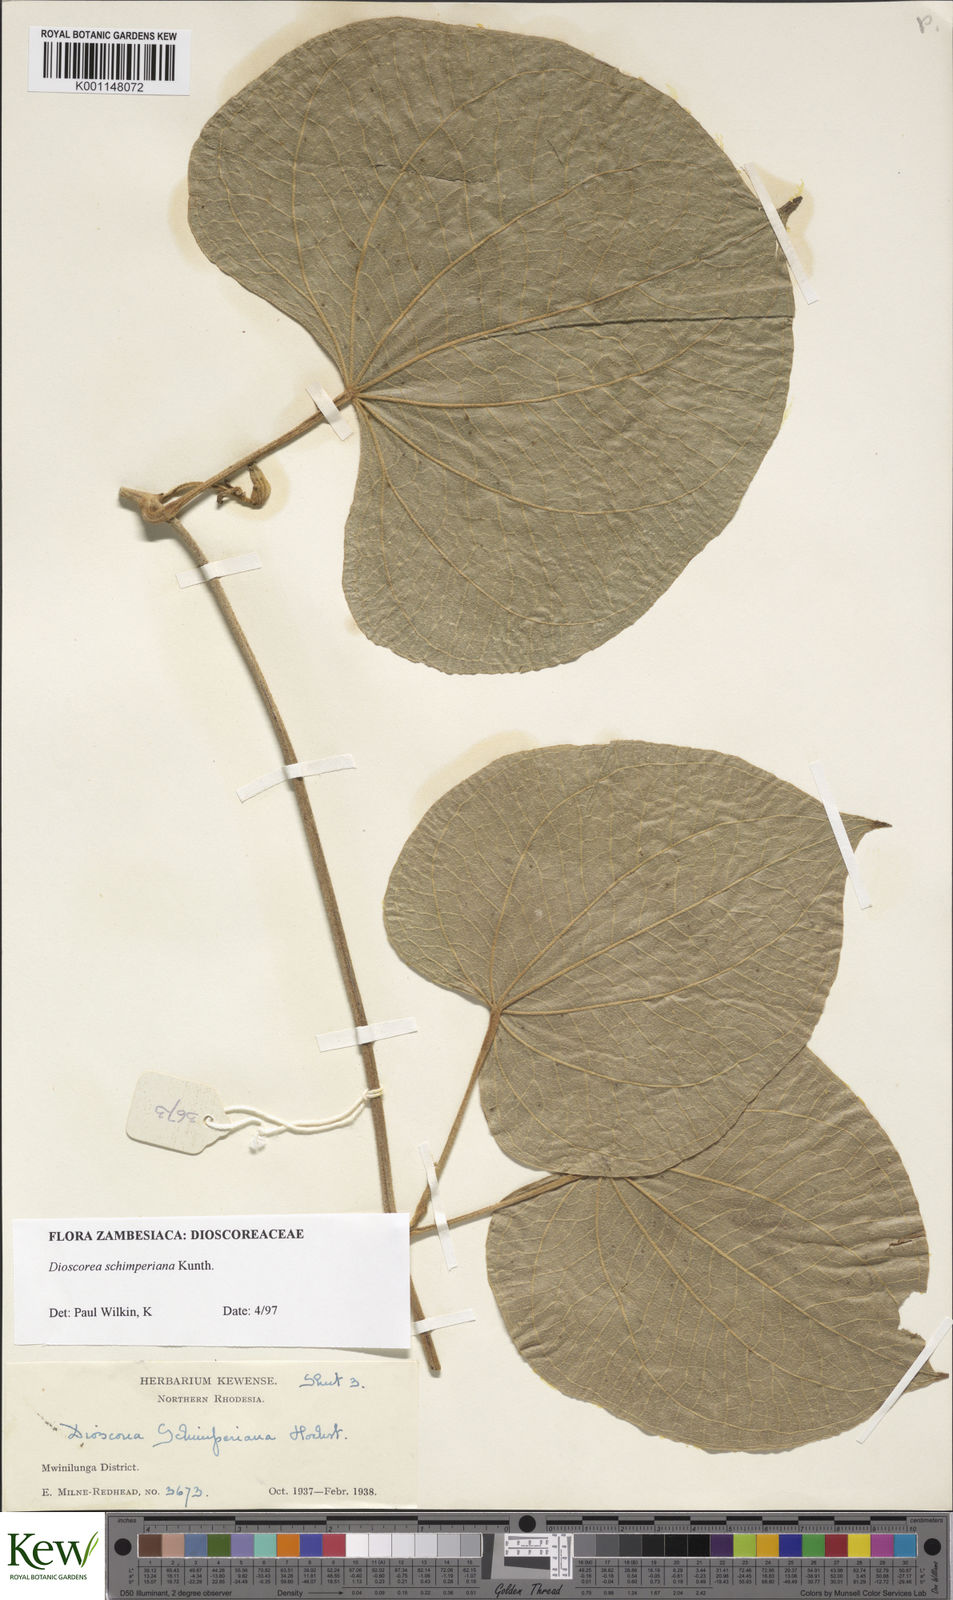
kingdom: Plantae
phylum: Tracheophyta
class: Liliopsida
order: Dioscoreales
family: Dioscoreaceae
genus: Dioscorea
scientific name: Dioscorea schimperiana
